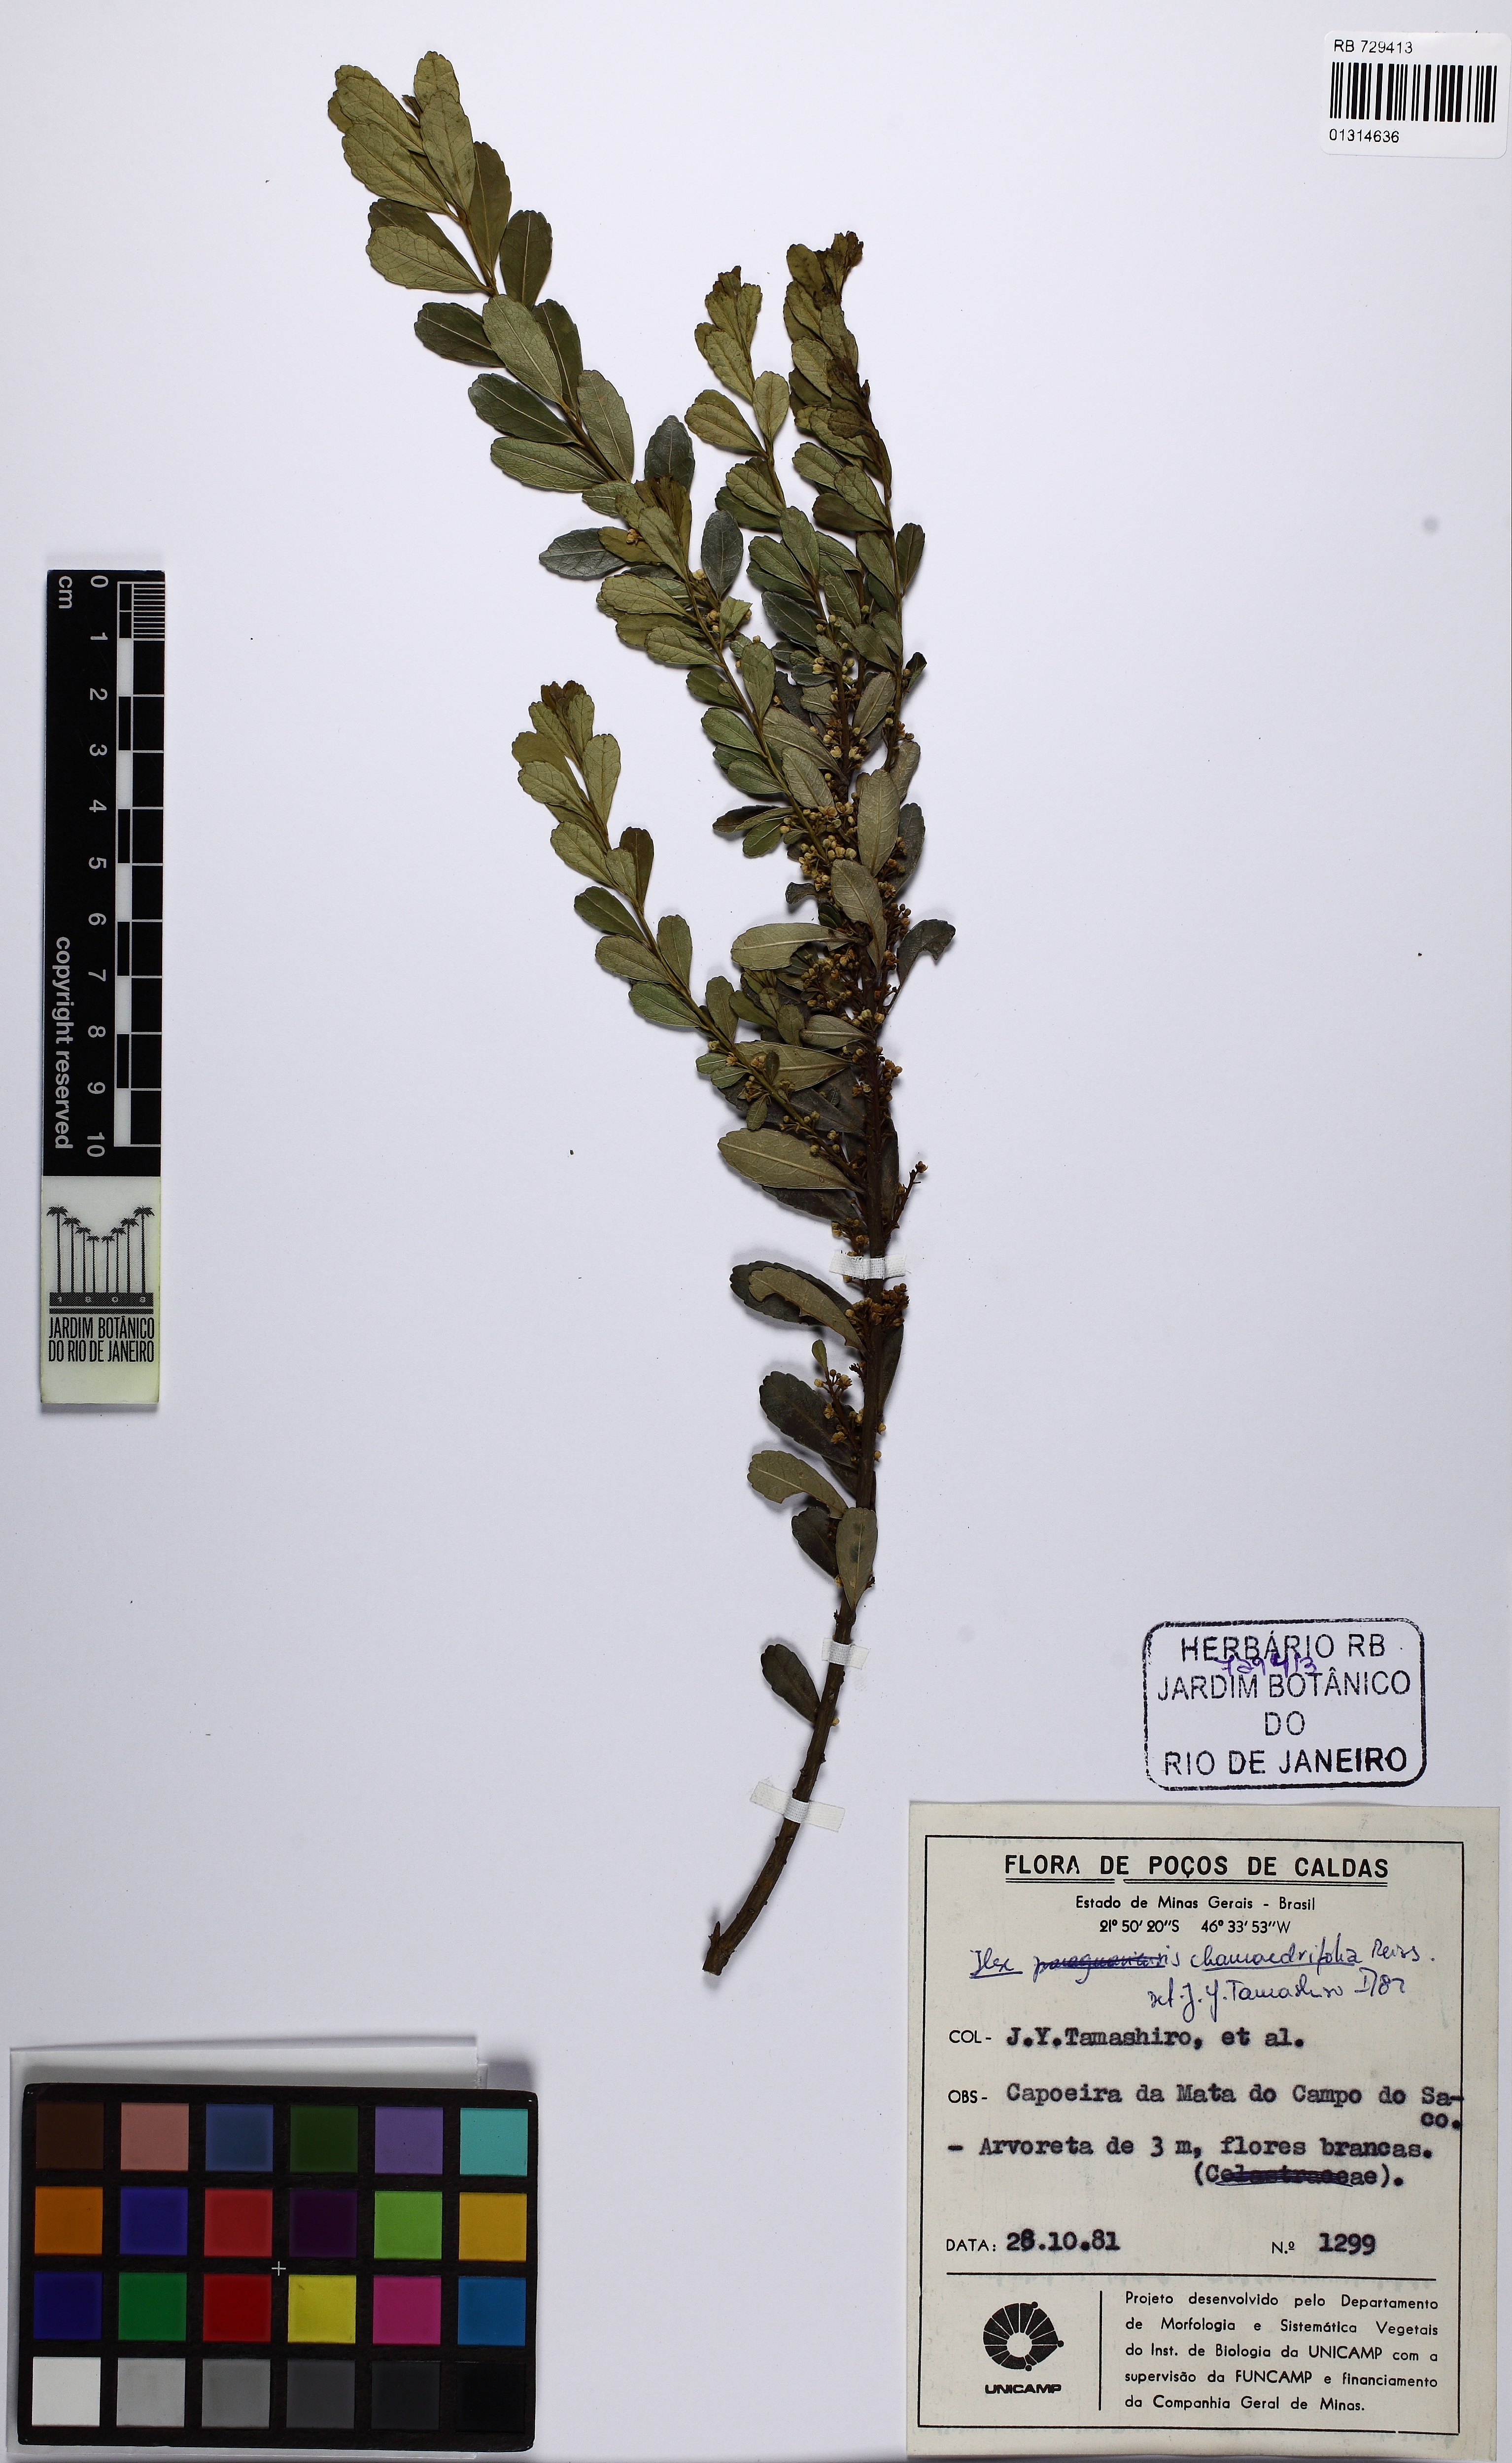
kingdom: Plantae
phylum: Tracheophyta
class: Magnoliopsida
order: Aquifoliales
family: Aquifoliaceae
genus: Ilex
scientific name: Ilex chamaedryfolia
